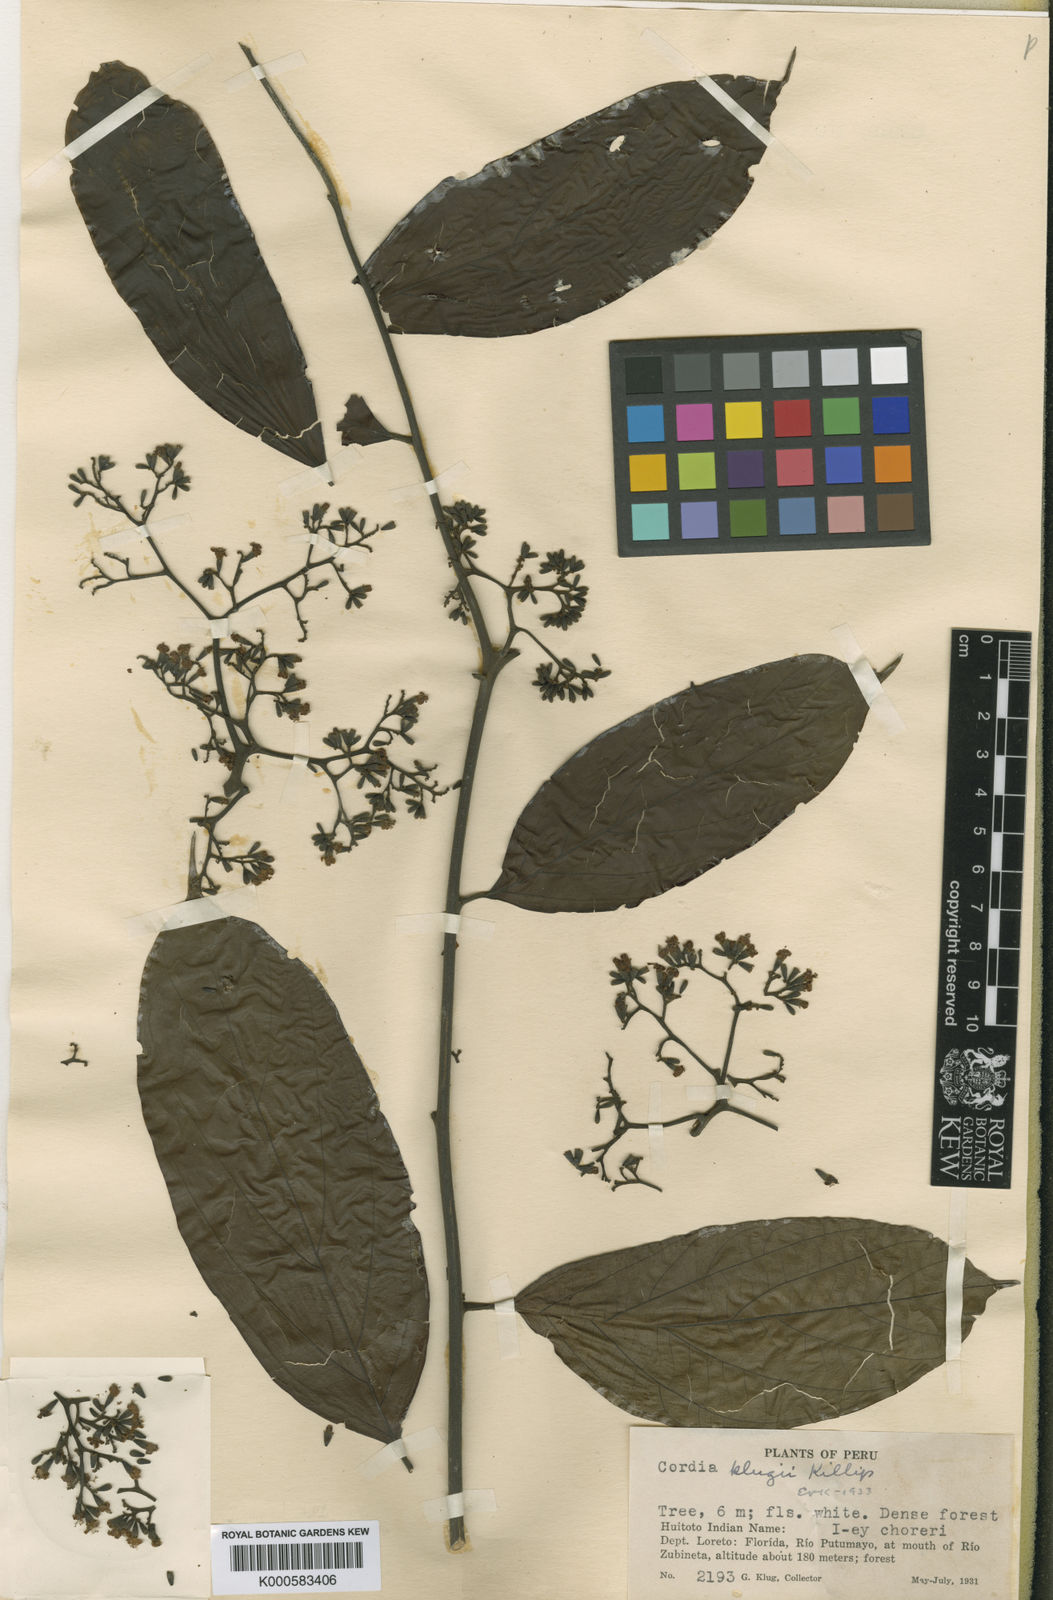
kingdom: Plantae
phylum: Tracheophyta
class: Magnoliopsida
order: Boraginales
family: Cordiaceae
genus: Cordia
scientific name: Cordia
